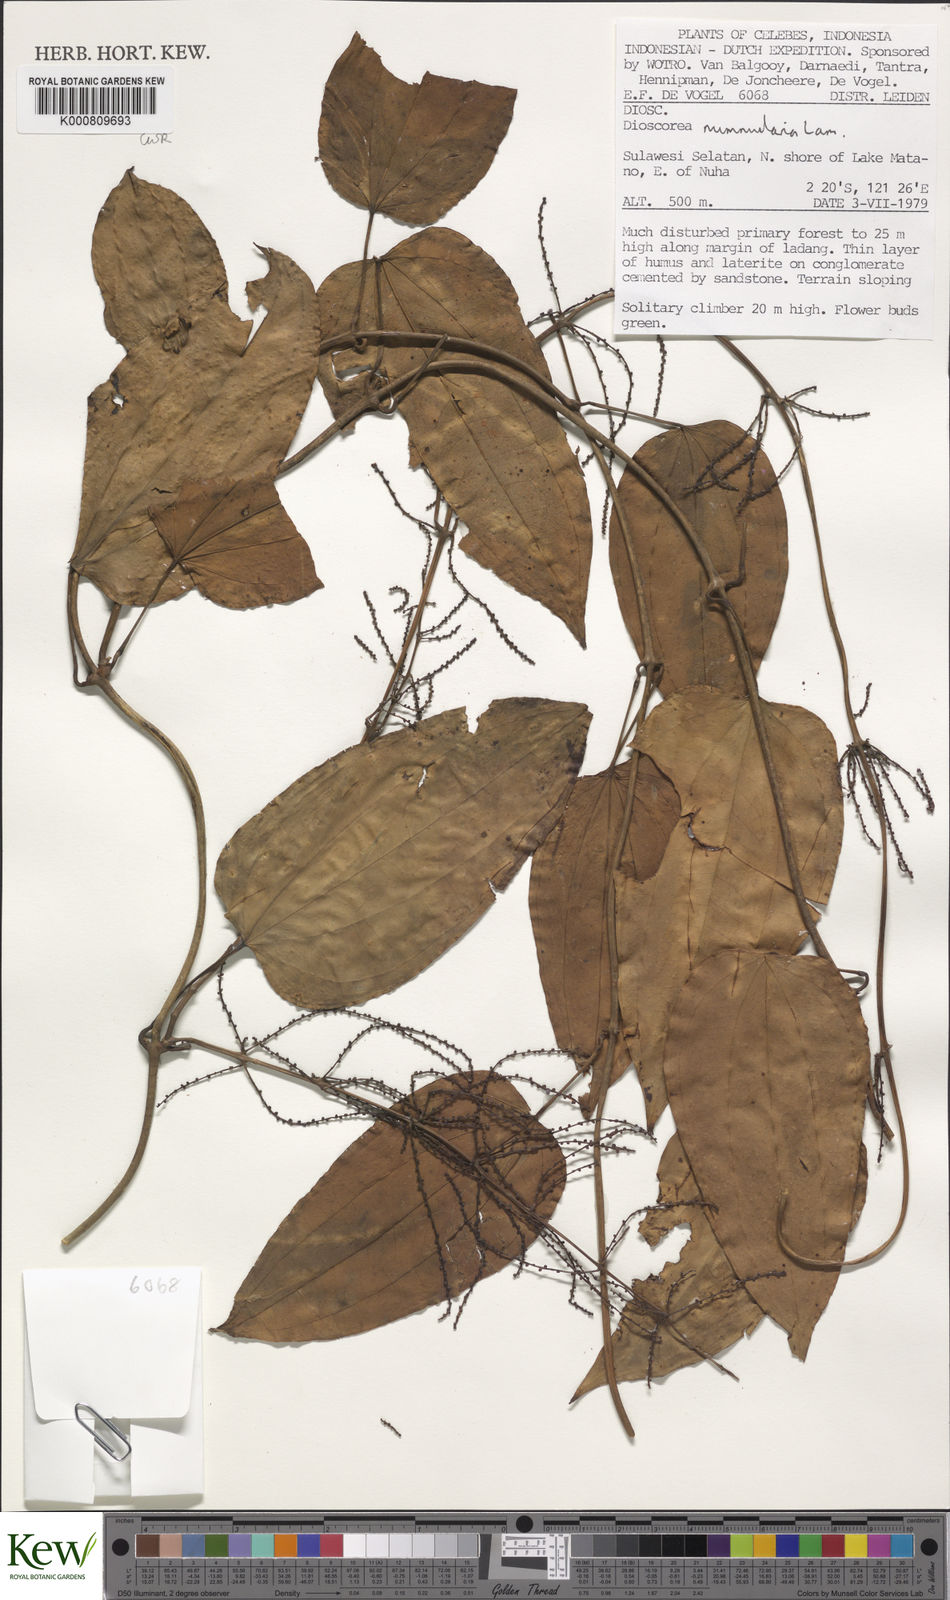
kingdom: Plantae
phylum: Tracheophyta
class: Liliopsida
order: Dioscoreales
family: Dioscoreaceae
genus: Dioscorea
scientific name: Dioscorea nummularia
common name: Pacific yam
